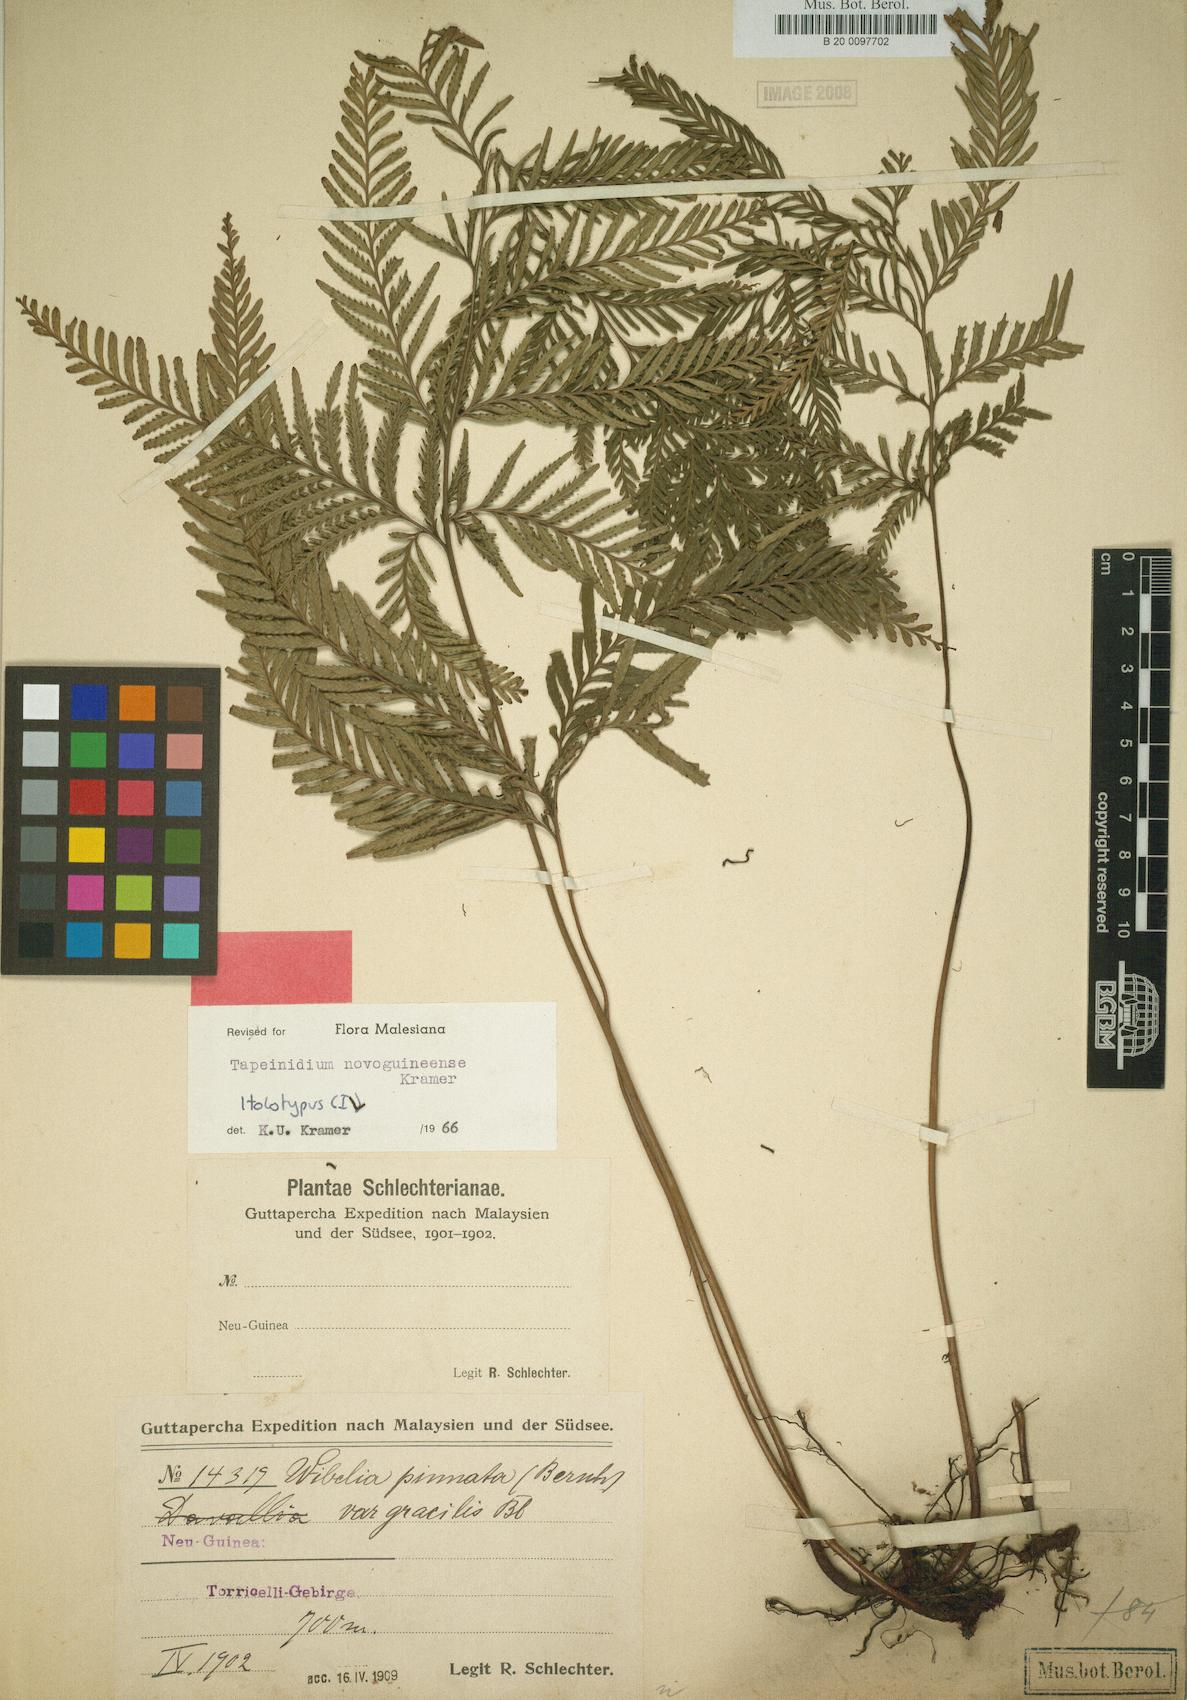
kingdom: Plantae
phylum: Tracheophyta
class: Polypodiopsida
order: Polypodiales
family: Lindsaeaceae
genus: Tapeinidium
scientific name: Tapeinidium novoguineense
